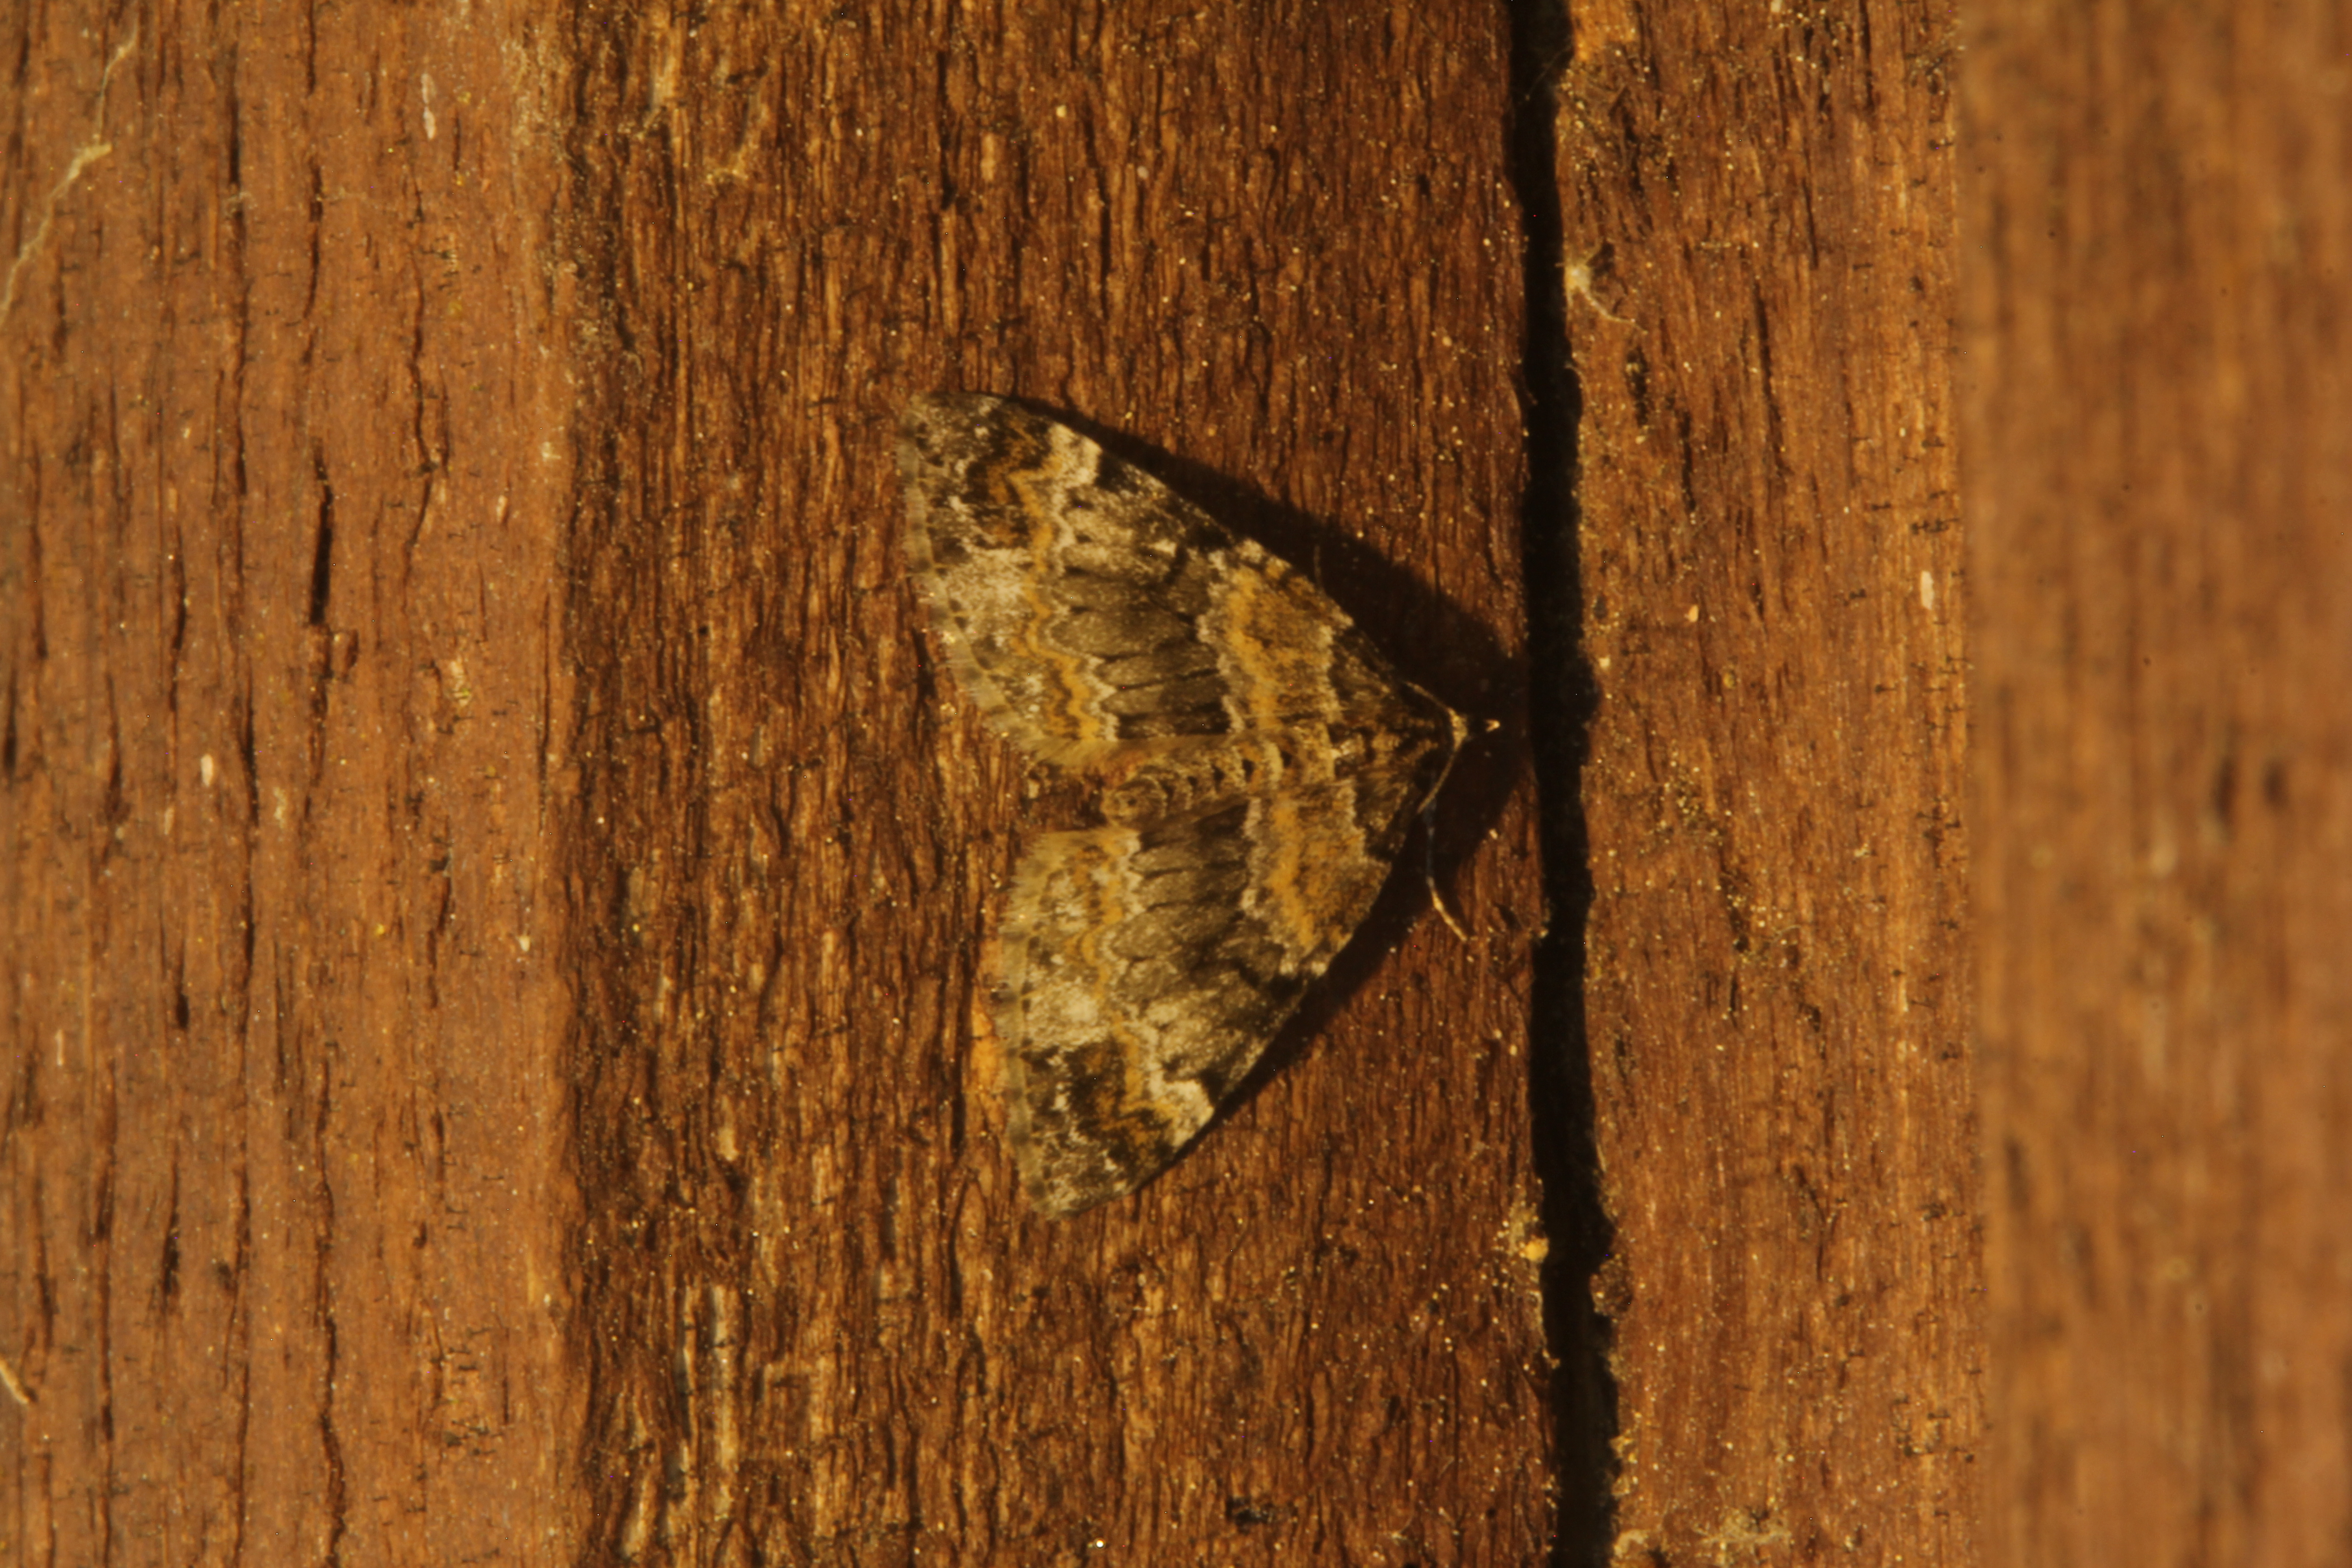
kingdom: Animalia
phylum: Arthropoda
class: Insecta
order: Lepidoptera
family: Geometridae
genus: Perizoma
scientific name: Perizoma taeniata
